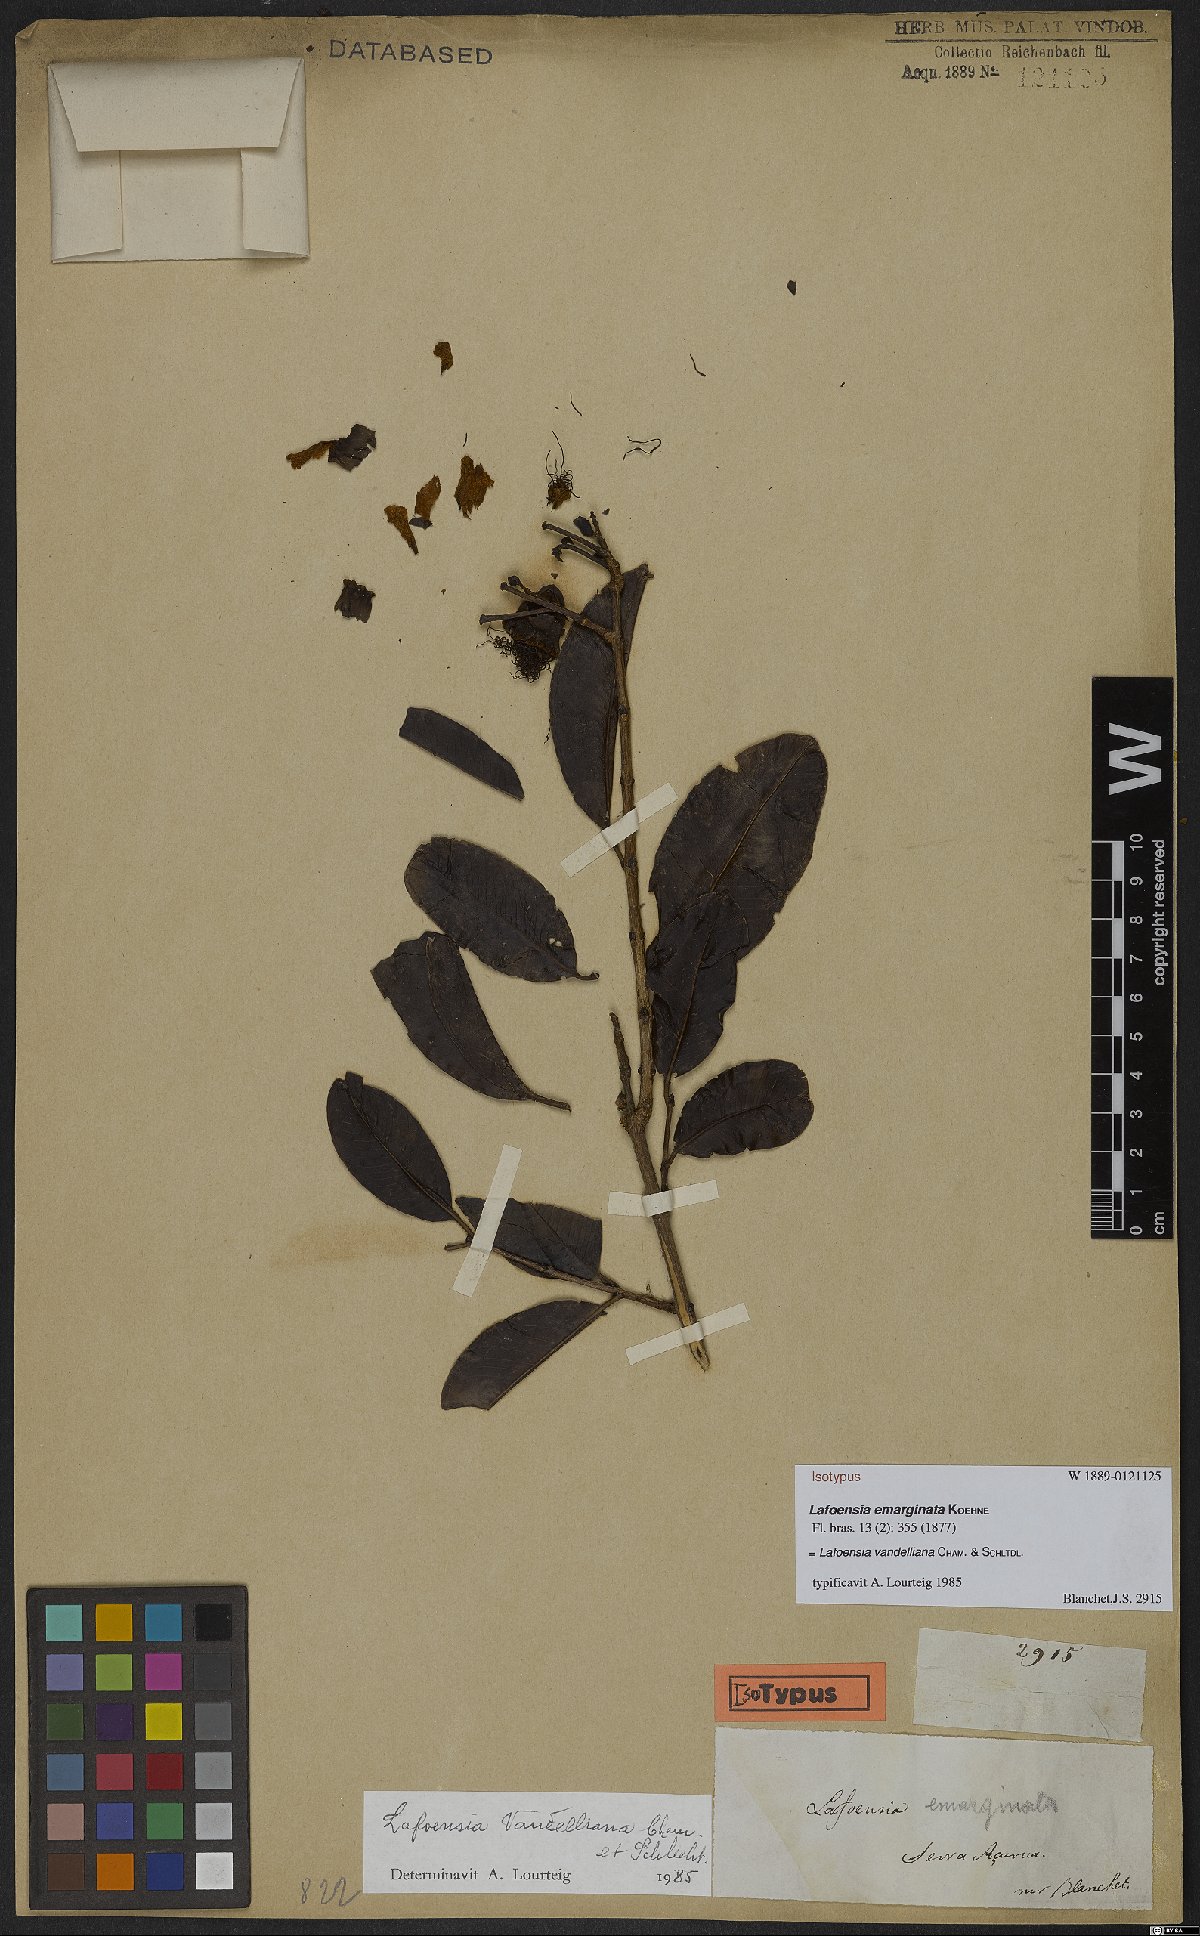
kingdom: Plantae
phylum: Tracheophyta
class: Magnoliopsida
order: Myrtales
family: Lythraceae
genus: Lafoensia
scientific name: Lafoensia vandelliana
